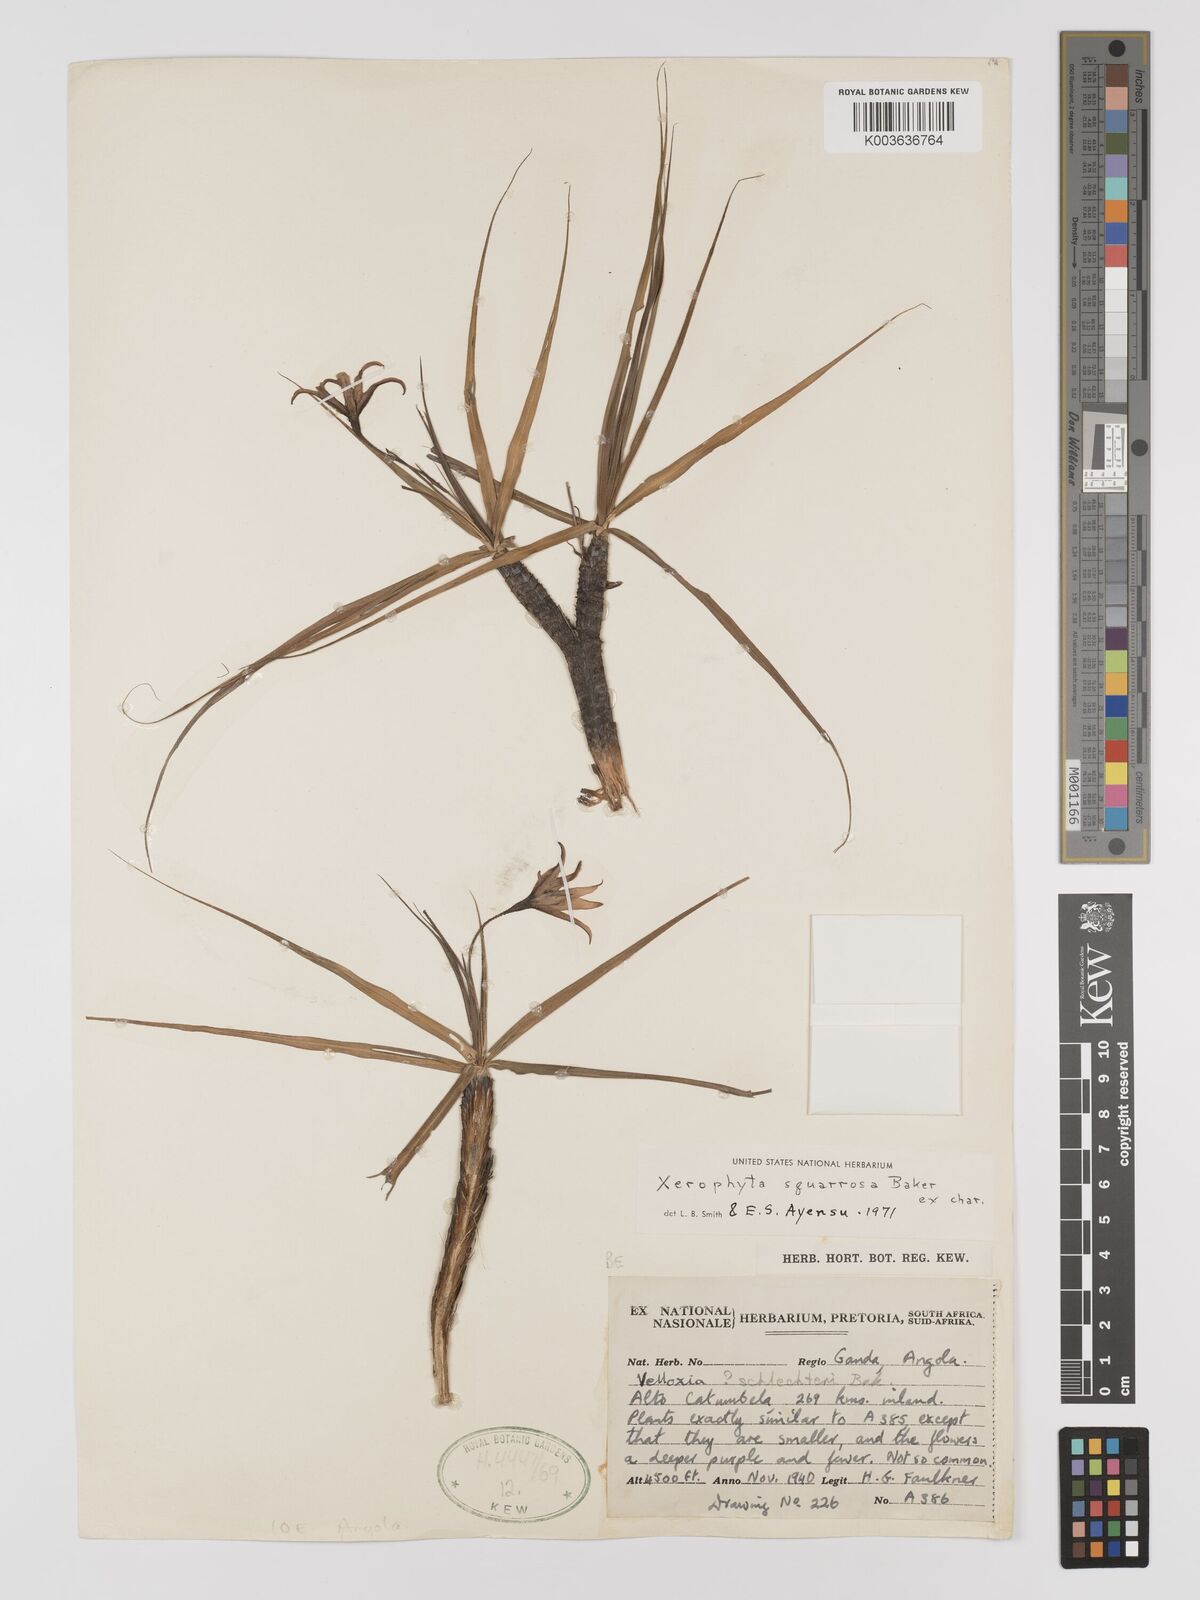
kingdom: Plantae
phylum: Tracheophyta
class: Liliopsida
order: Pandanales
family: Velloziaceae
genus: Xerophyta
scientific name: Xerophyta squarrosa
